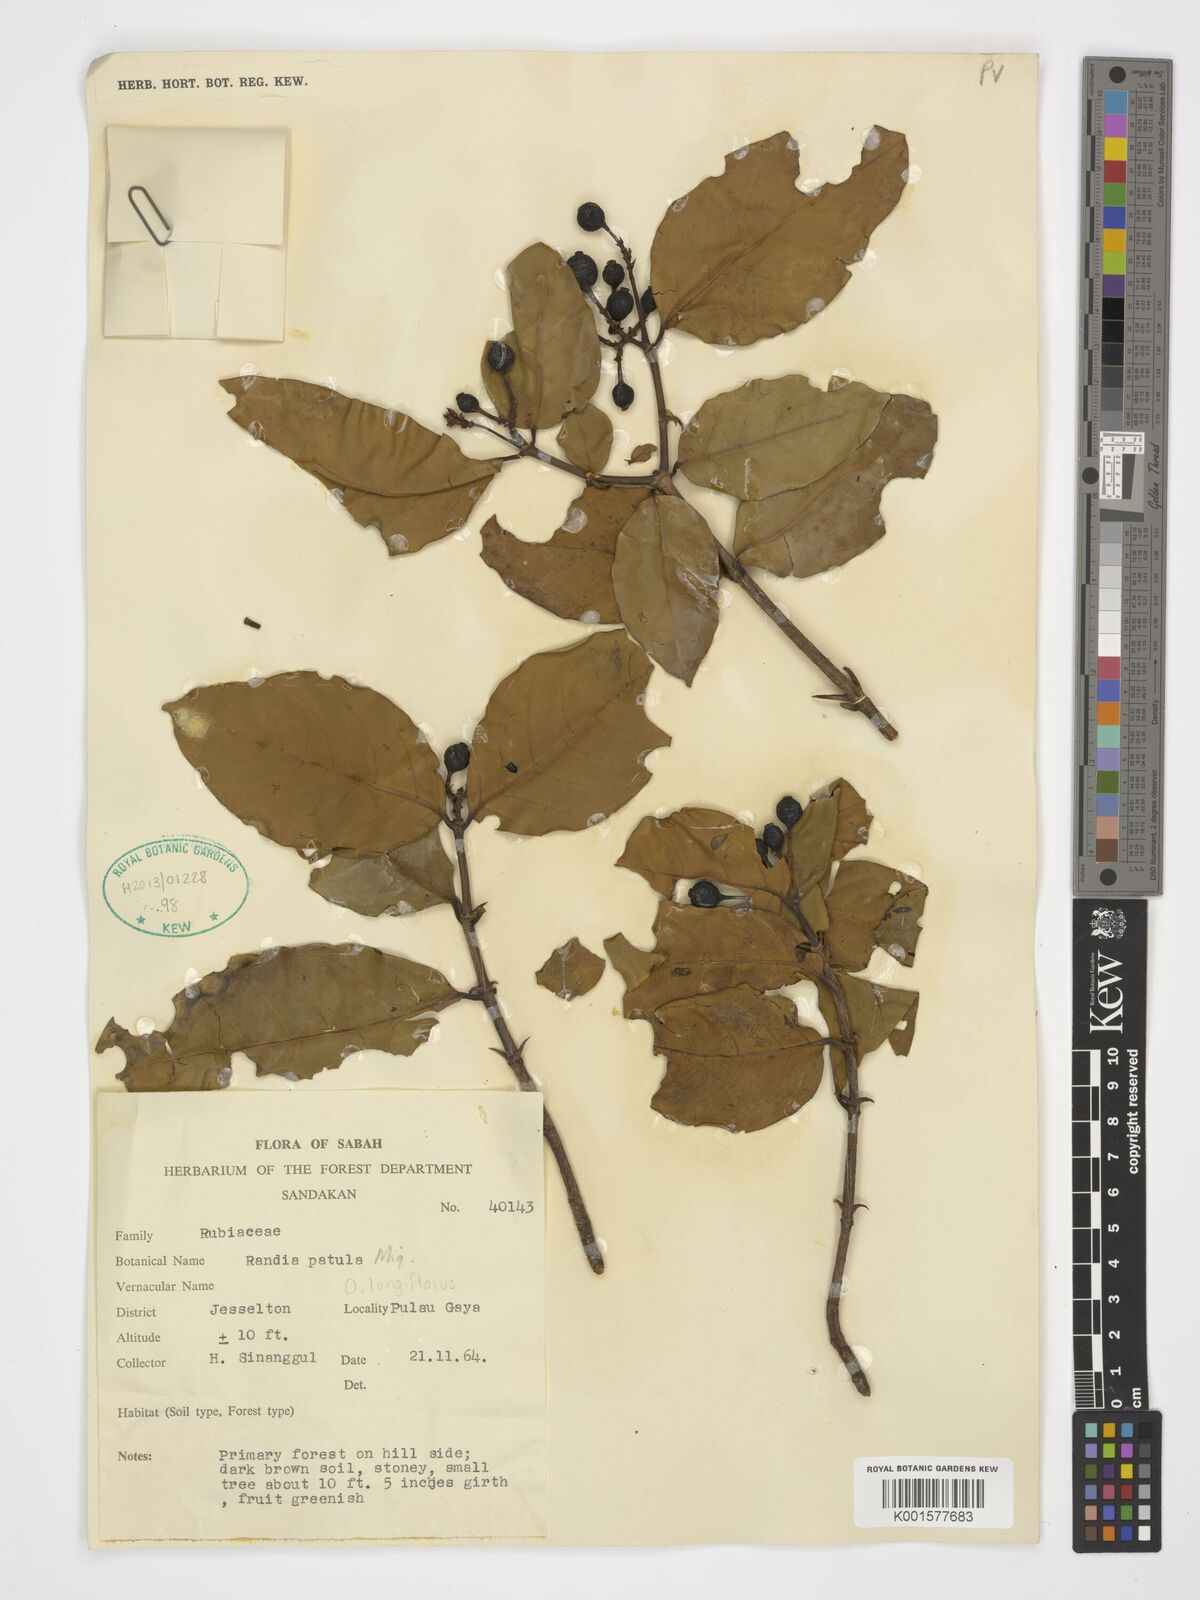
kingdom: Plantae
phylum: Tracheophyta
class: Magnoliopsida
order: Gentianales
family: Rubiaceae
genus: Oxyceros
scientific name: Oxyceros longiflorus
